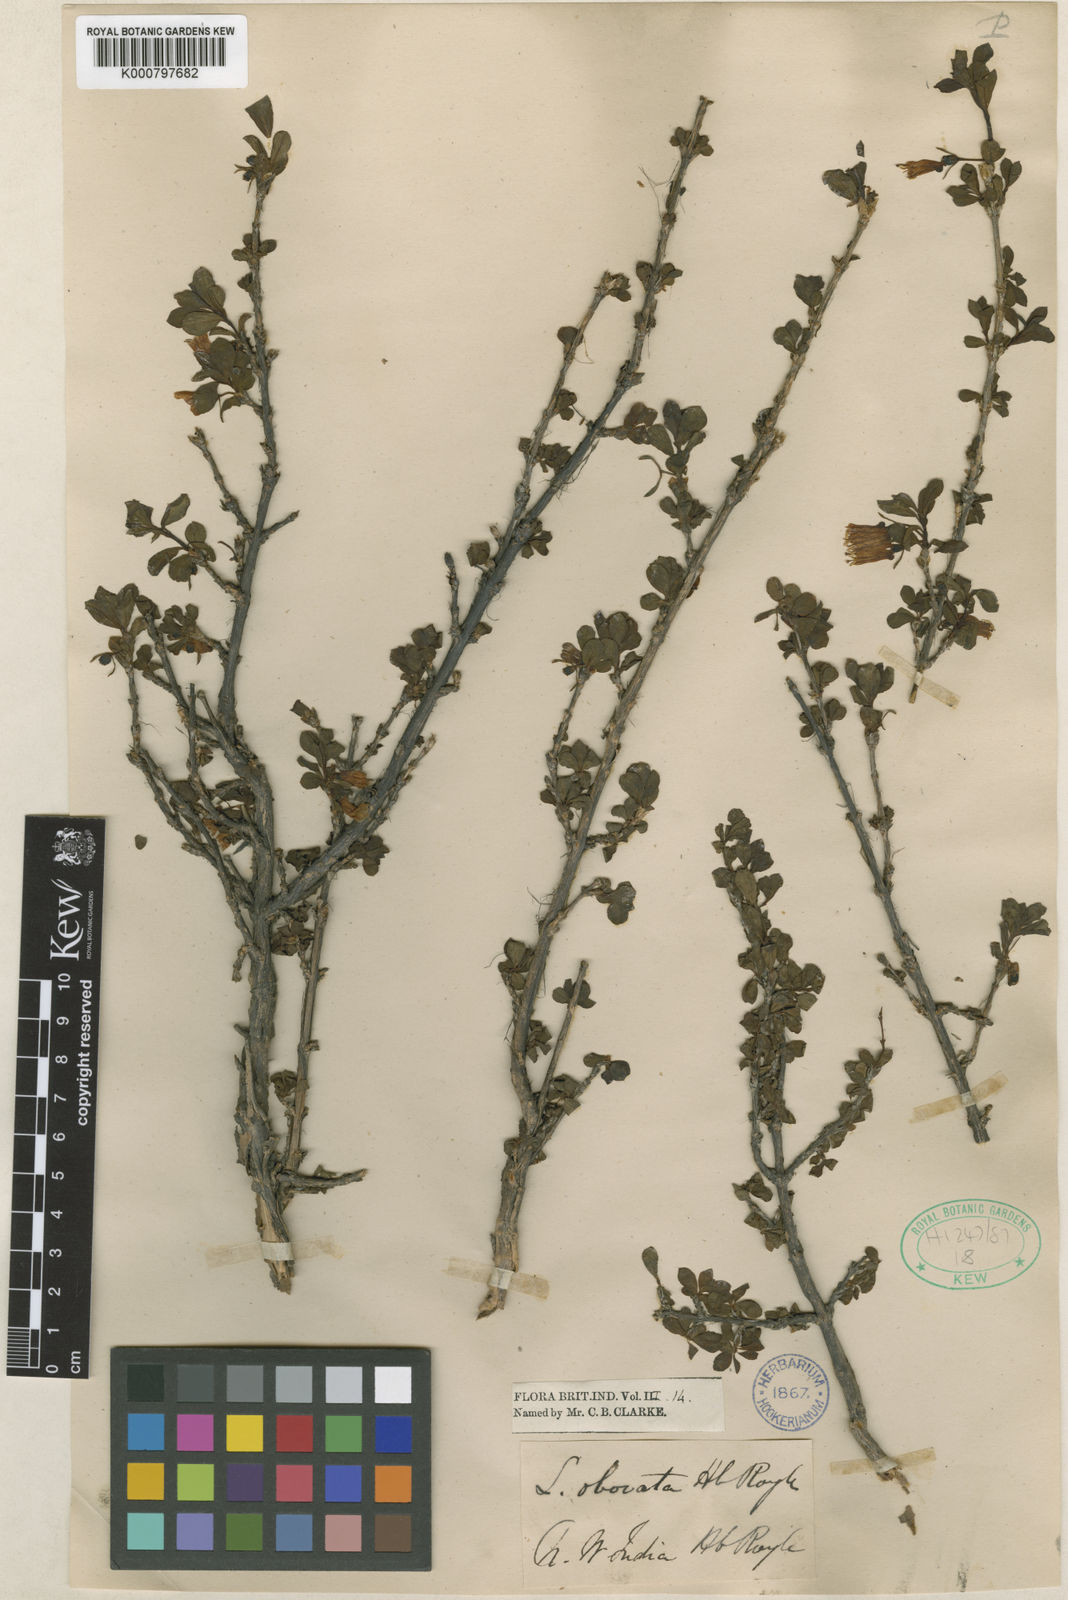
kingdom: Plantae
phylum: Tracheophyta
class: Magnoliopsida
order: Dipsacales
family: Caprifoliaceae
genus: Lonicera
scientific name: Lonicera obovata
